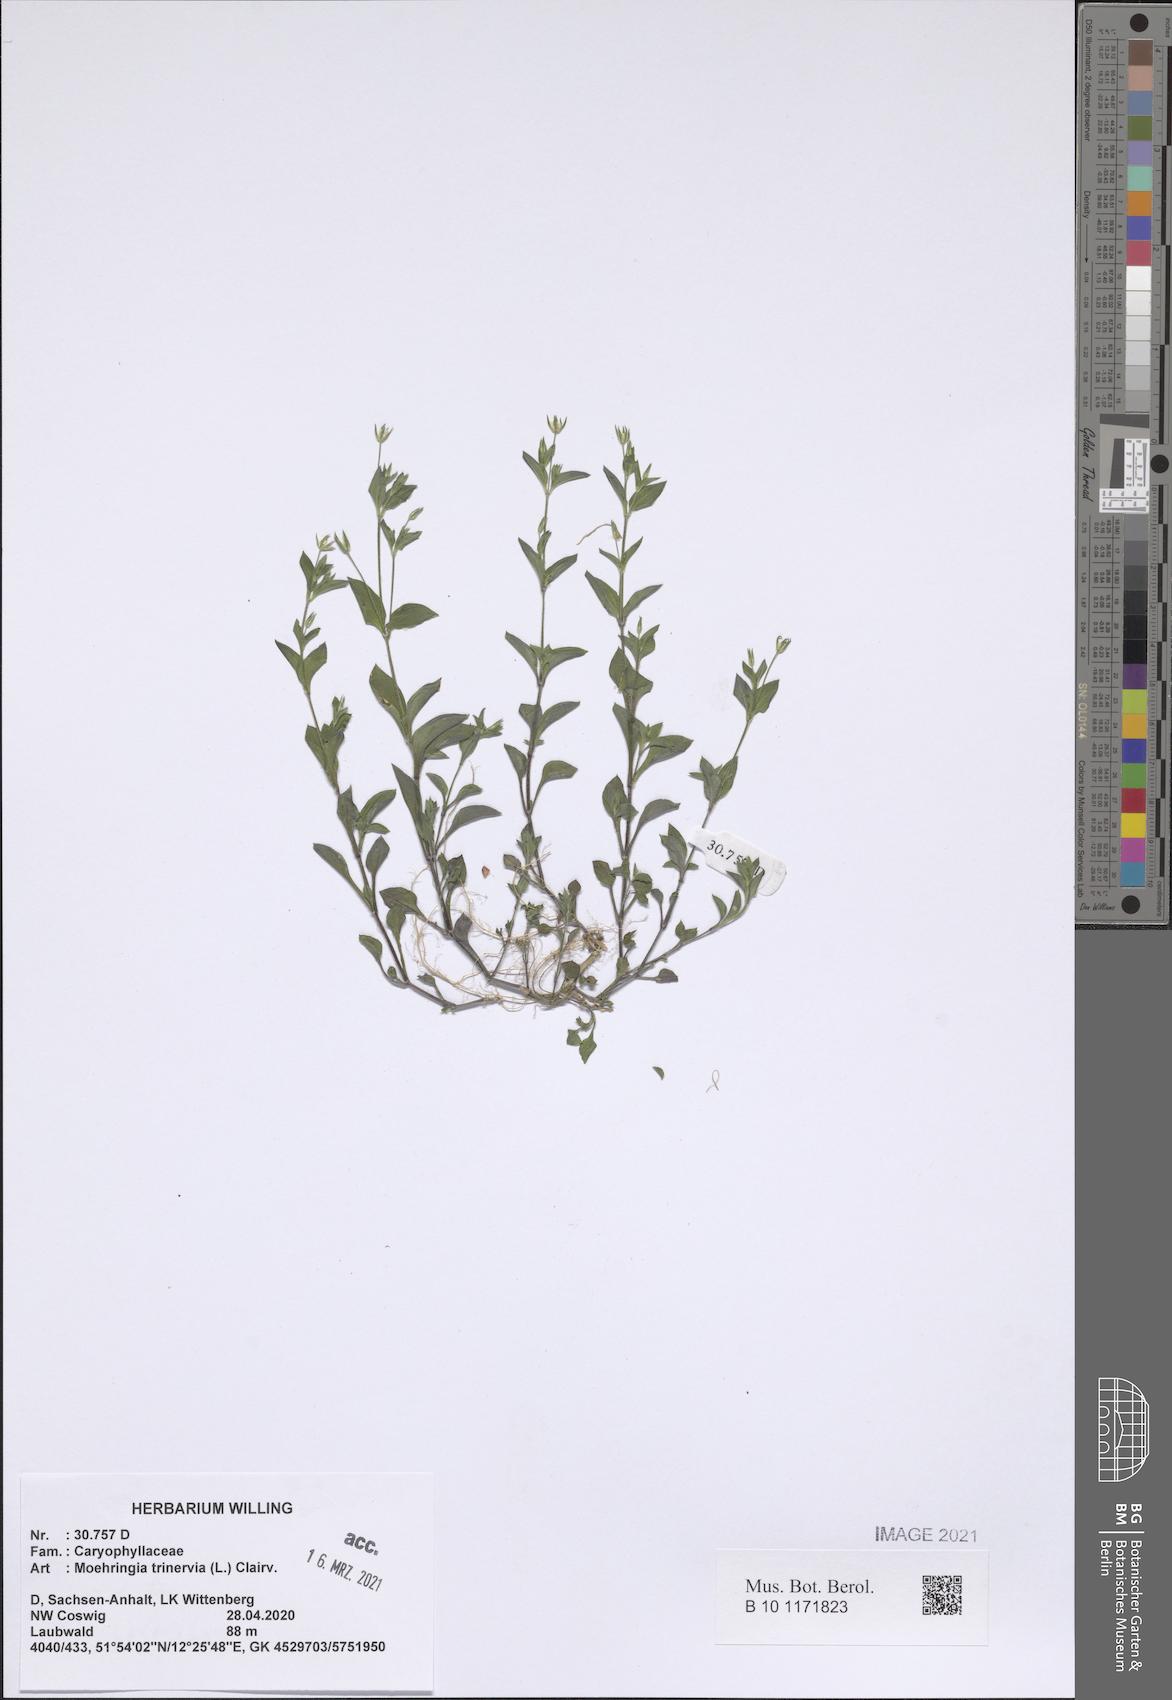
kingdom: Plantae
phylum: Tracheophyta
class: Magnoliopsida
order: Caryophyllales
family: Caryophyllaceae
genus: Moehringia
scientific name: Moehringia trinervia
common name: Three-nerved sandwort
